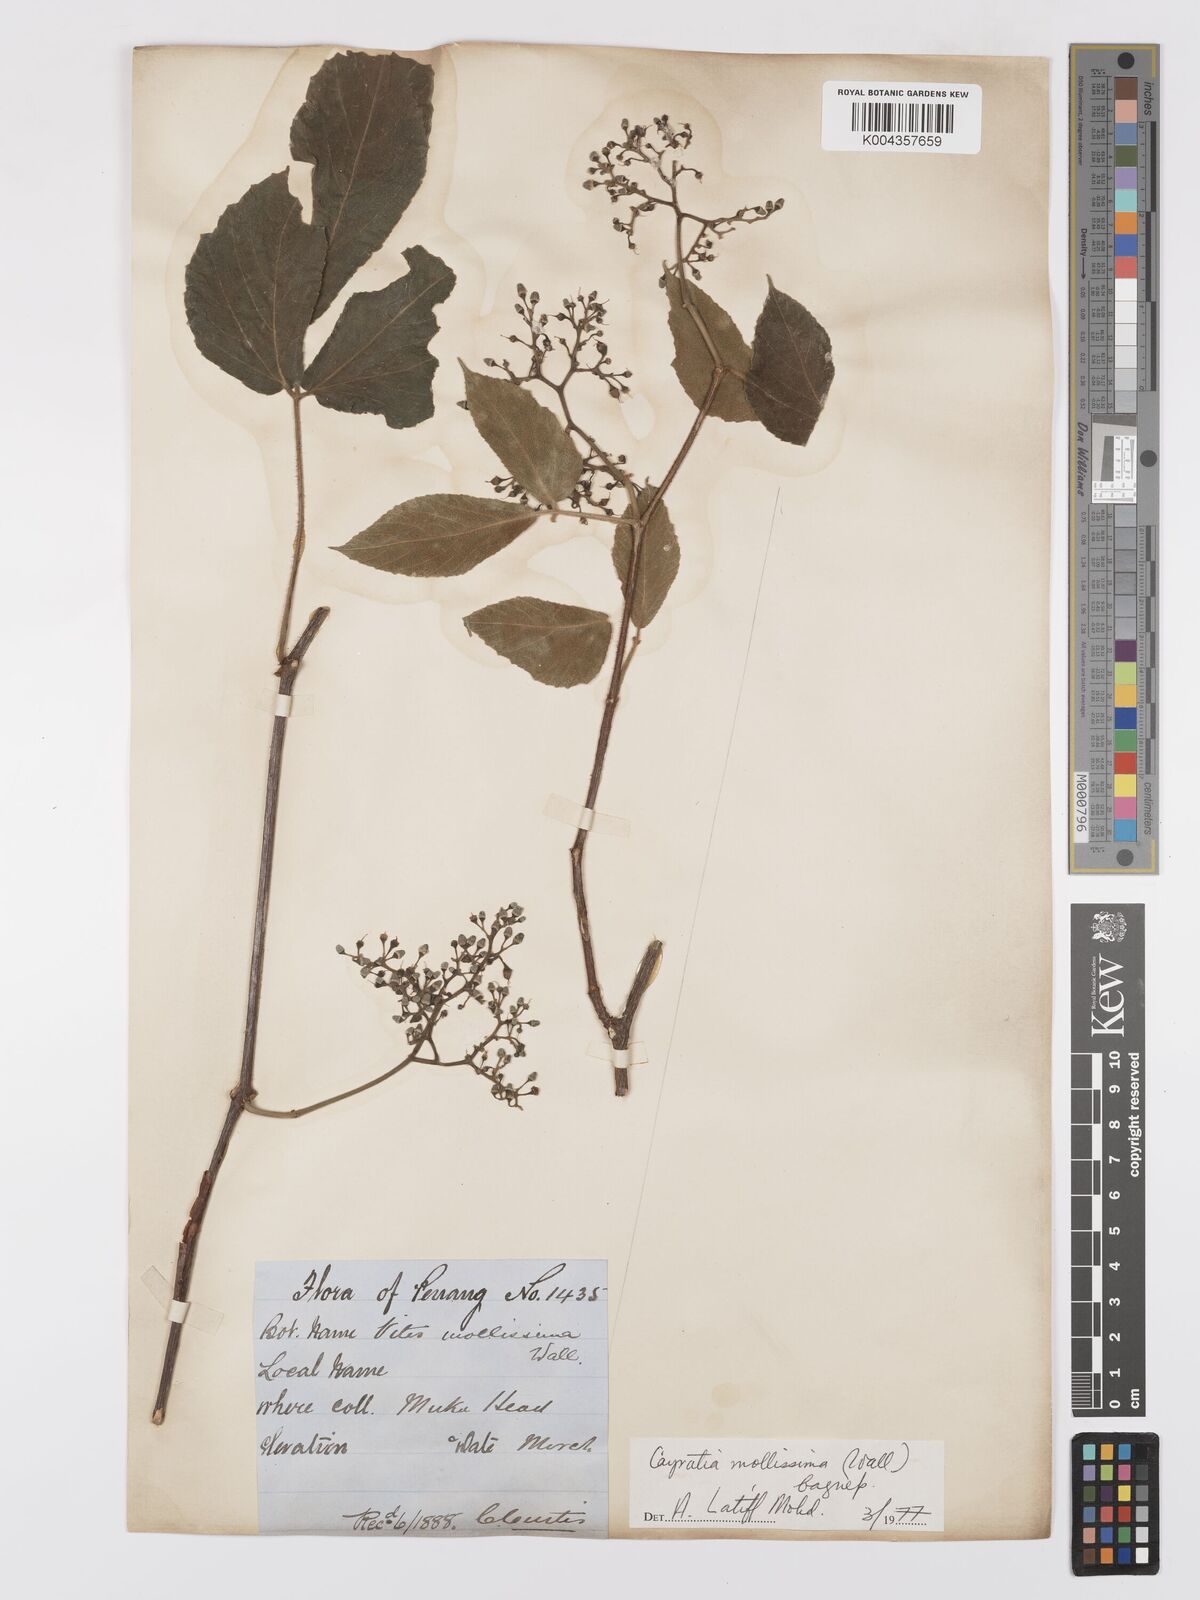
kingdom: Plantae
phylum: Tracheophyta
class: Magnoliopsida
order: Vitales
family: Vitaceae
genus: Cayratia
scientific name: Cayratia mollissima
